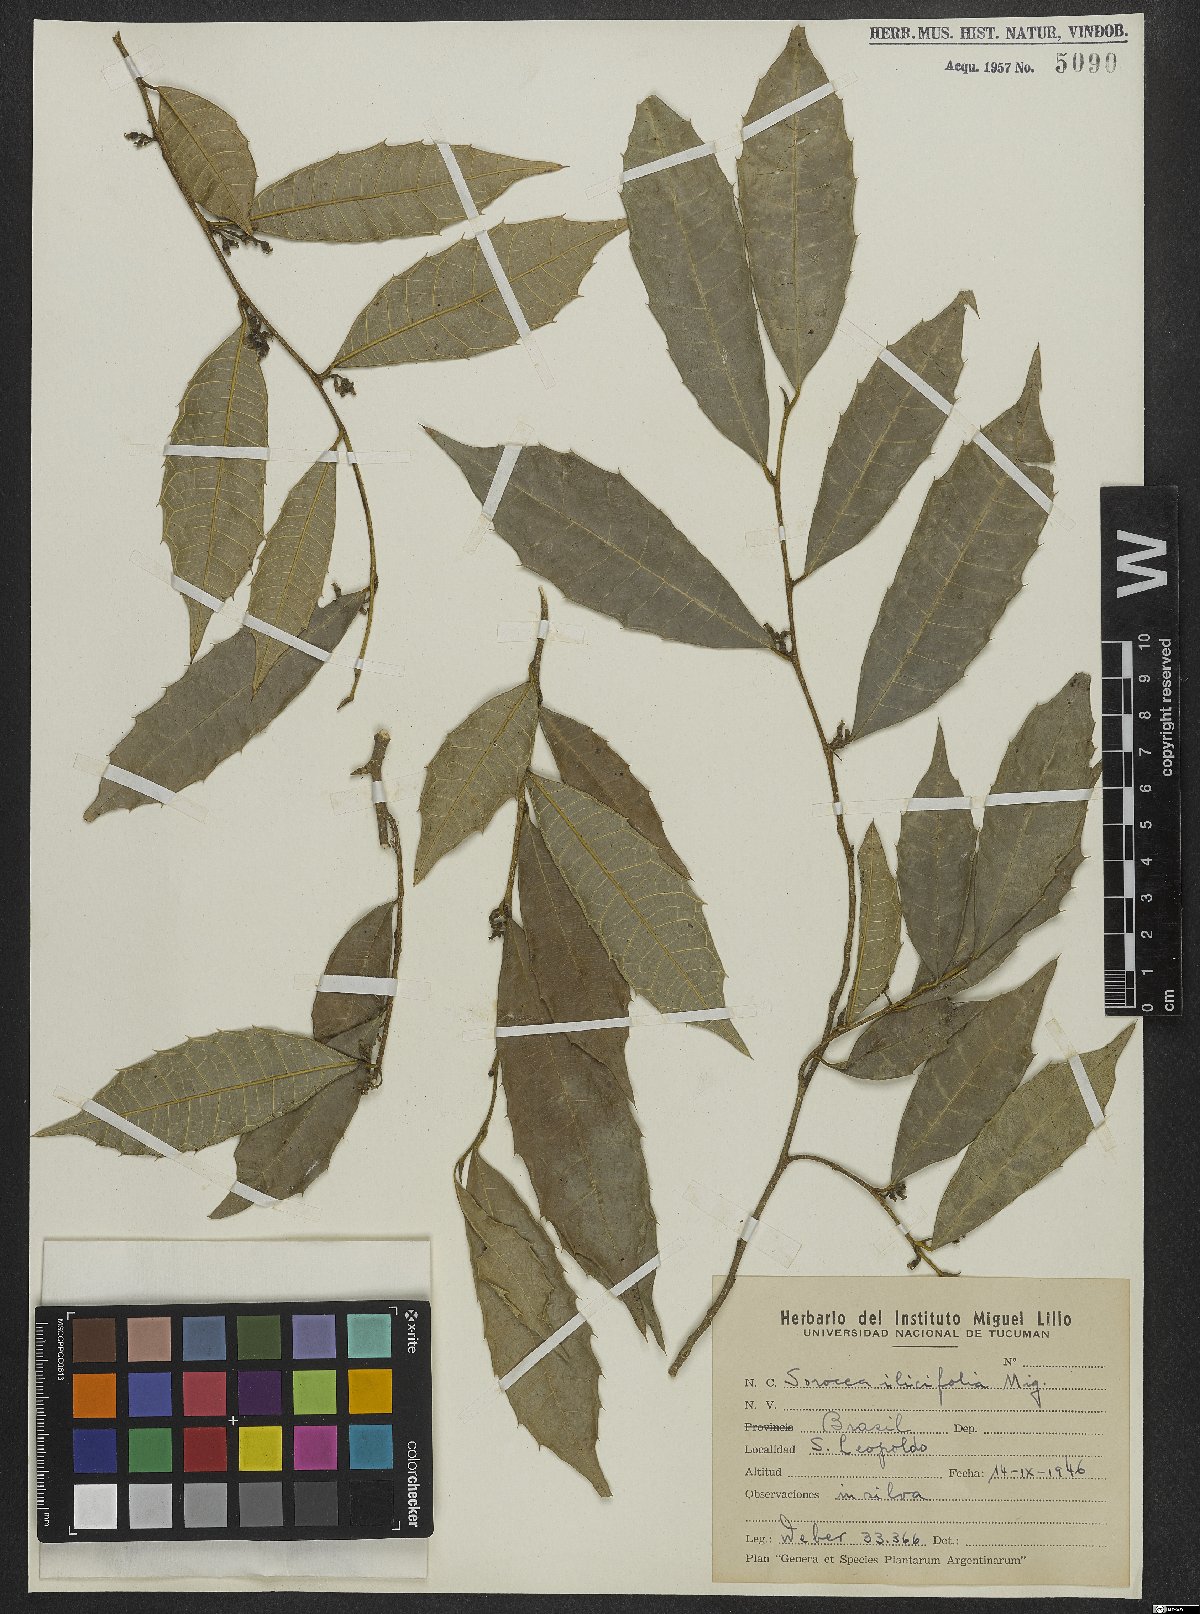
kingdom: Plantae
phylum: Tracheophyta
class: Magnoliopsida
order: Rosales
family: Moraceae
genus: Sorocea
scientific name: Sorocea
